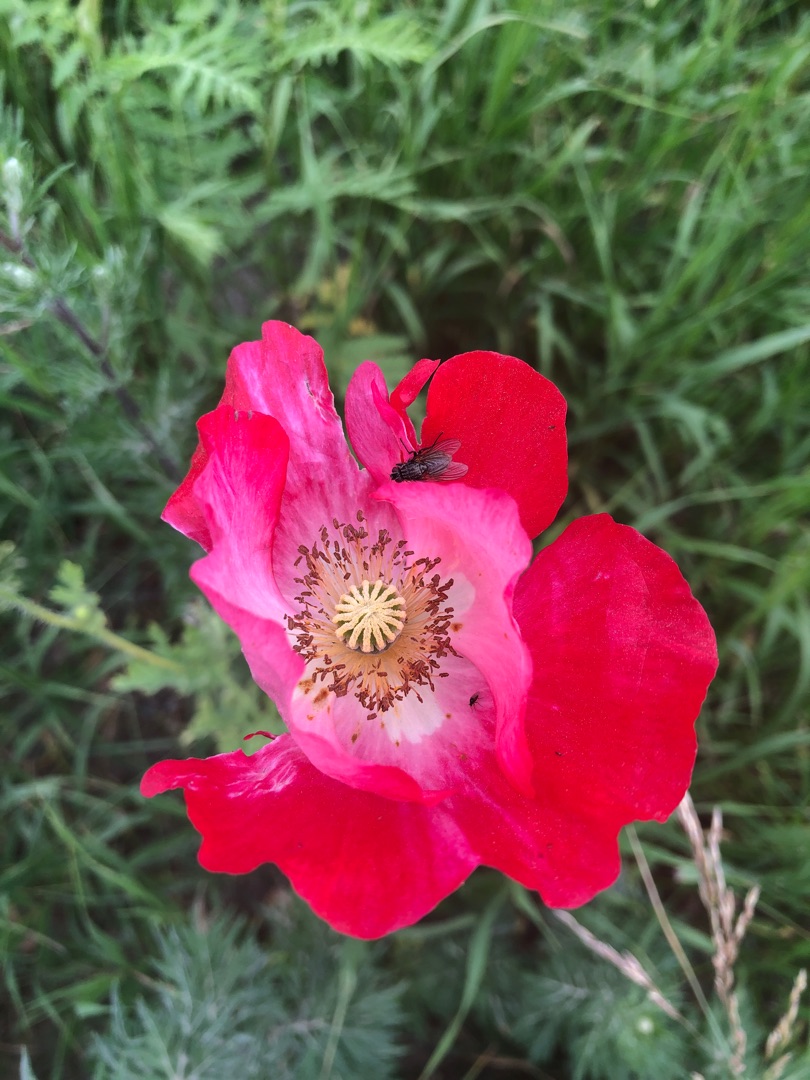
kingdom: Plantae
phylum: Tracheophyta
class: Magnoliopsida
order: Ranunculales
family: Papaveraceae
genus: Papaver
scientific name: Papaver
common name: Valmueslægten
